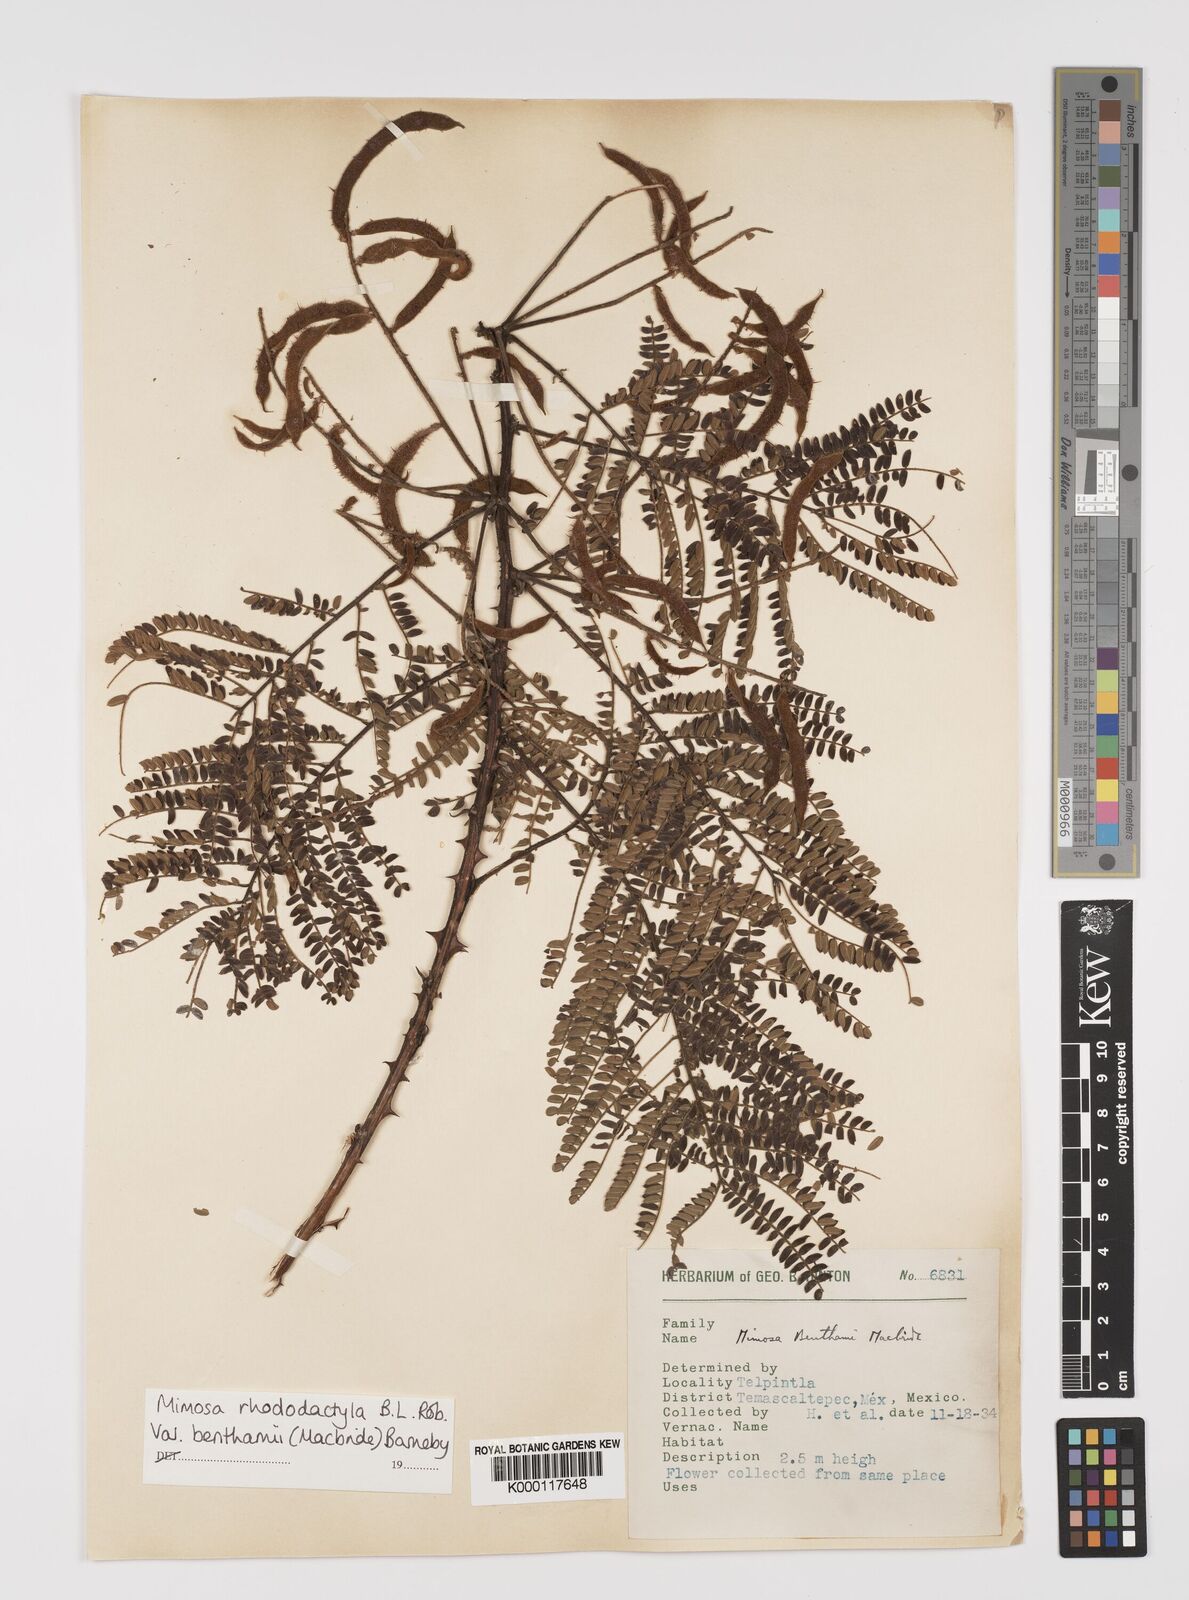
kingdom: Plantae
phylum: Tracheophyta
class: Magnoliopsida
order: Fabales
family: Fabaceae
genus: Mimosa
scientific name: Mimosa benthamii
